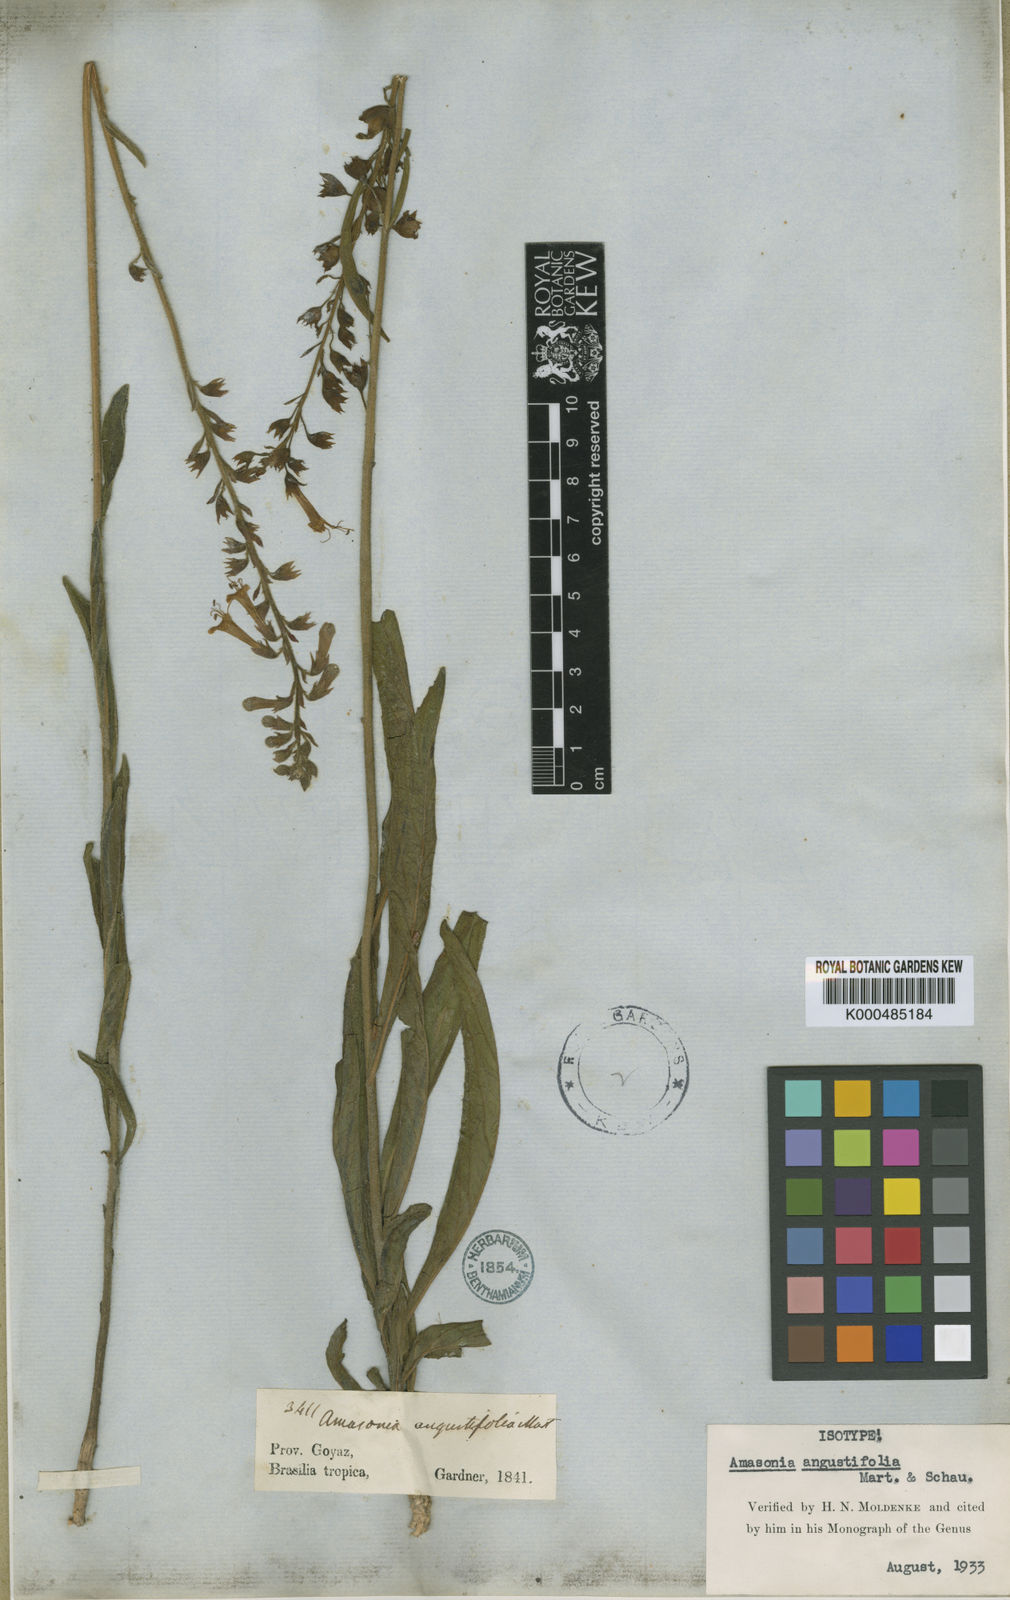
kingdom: Plantae
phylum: Tracheophyta
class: Magnoliopsida
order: Lamiales
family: Lamiaceae
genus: Amasonia
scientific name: Amasonia angustifolia
